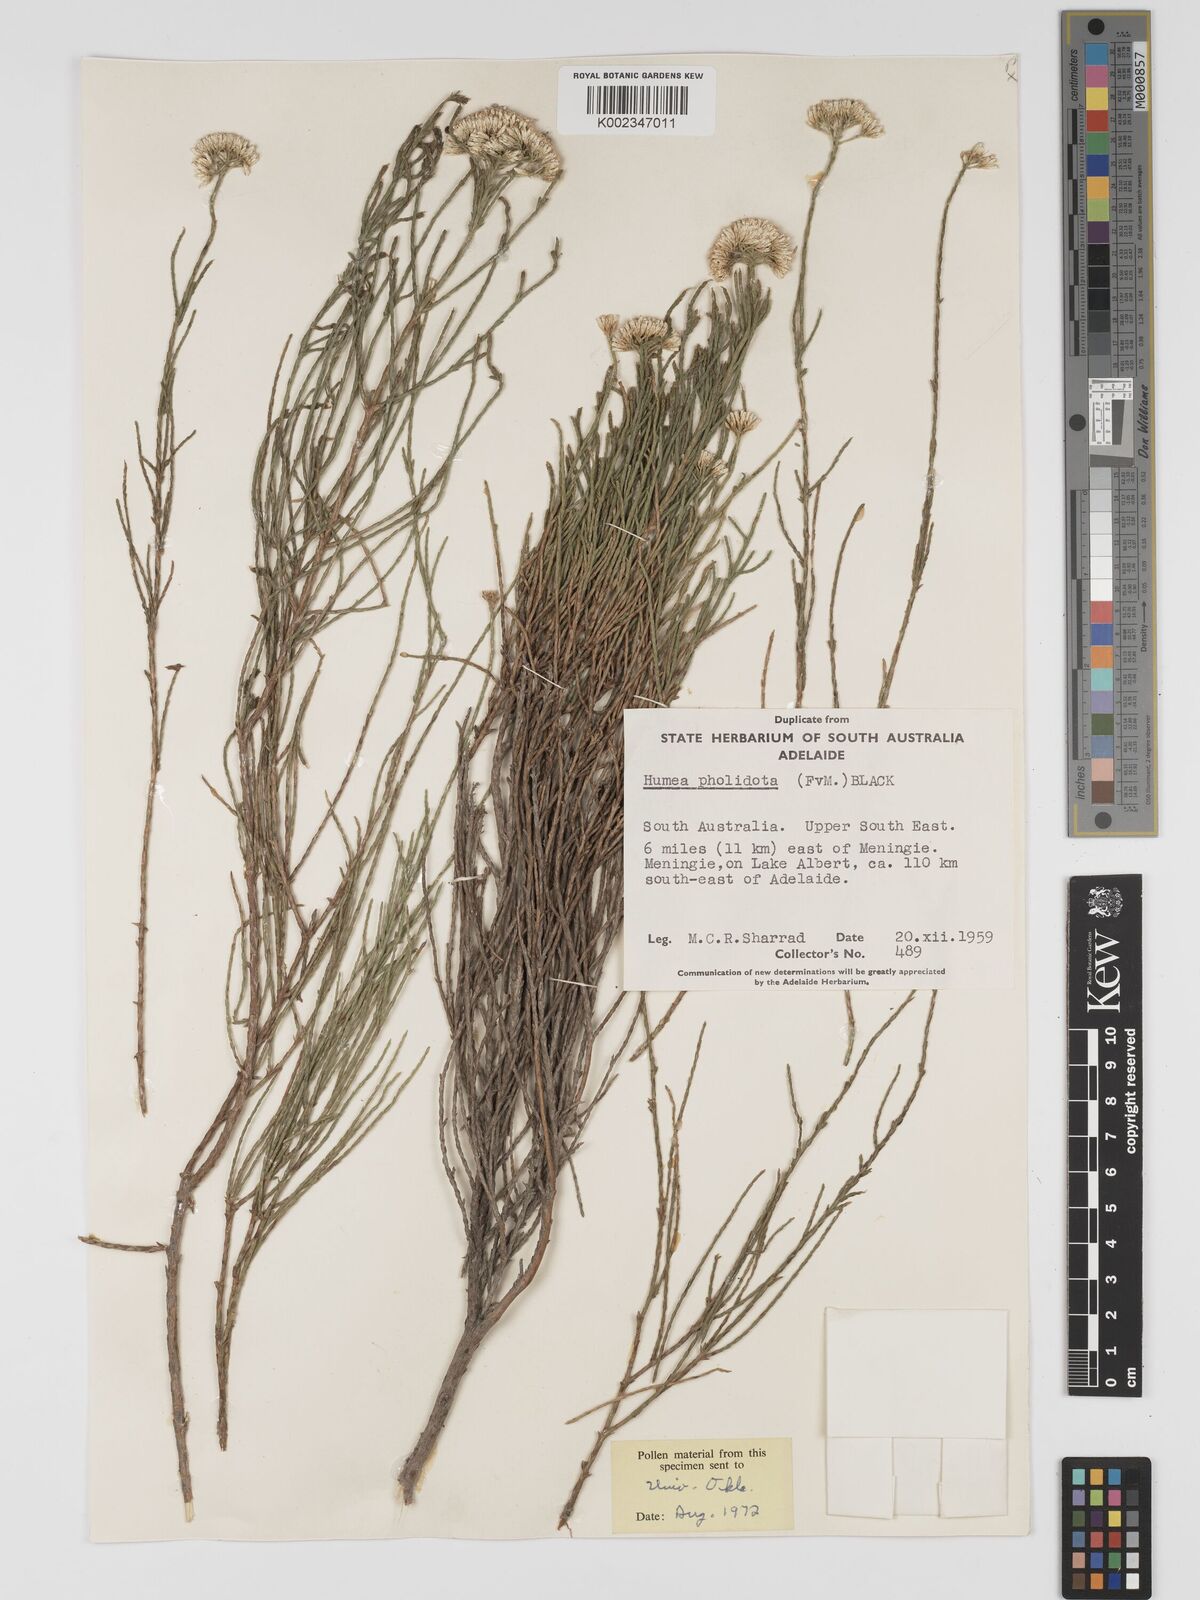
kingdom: Plantae
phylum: Tracheophyta
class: Magnoliopsida
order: Asterales
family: Asteraceae
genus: Haeckeria
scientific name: Haeckeria pholidota
